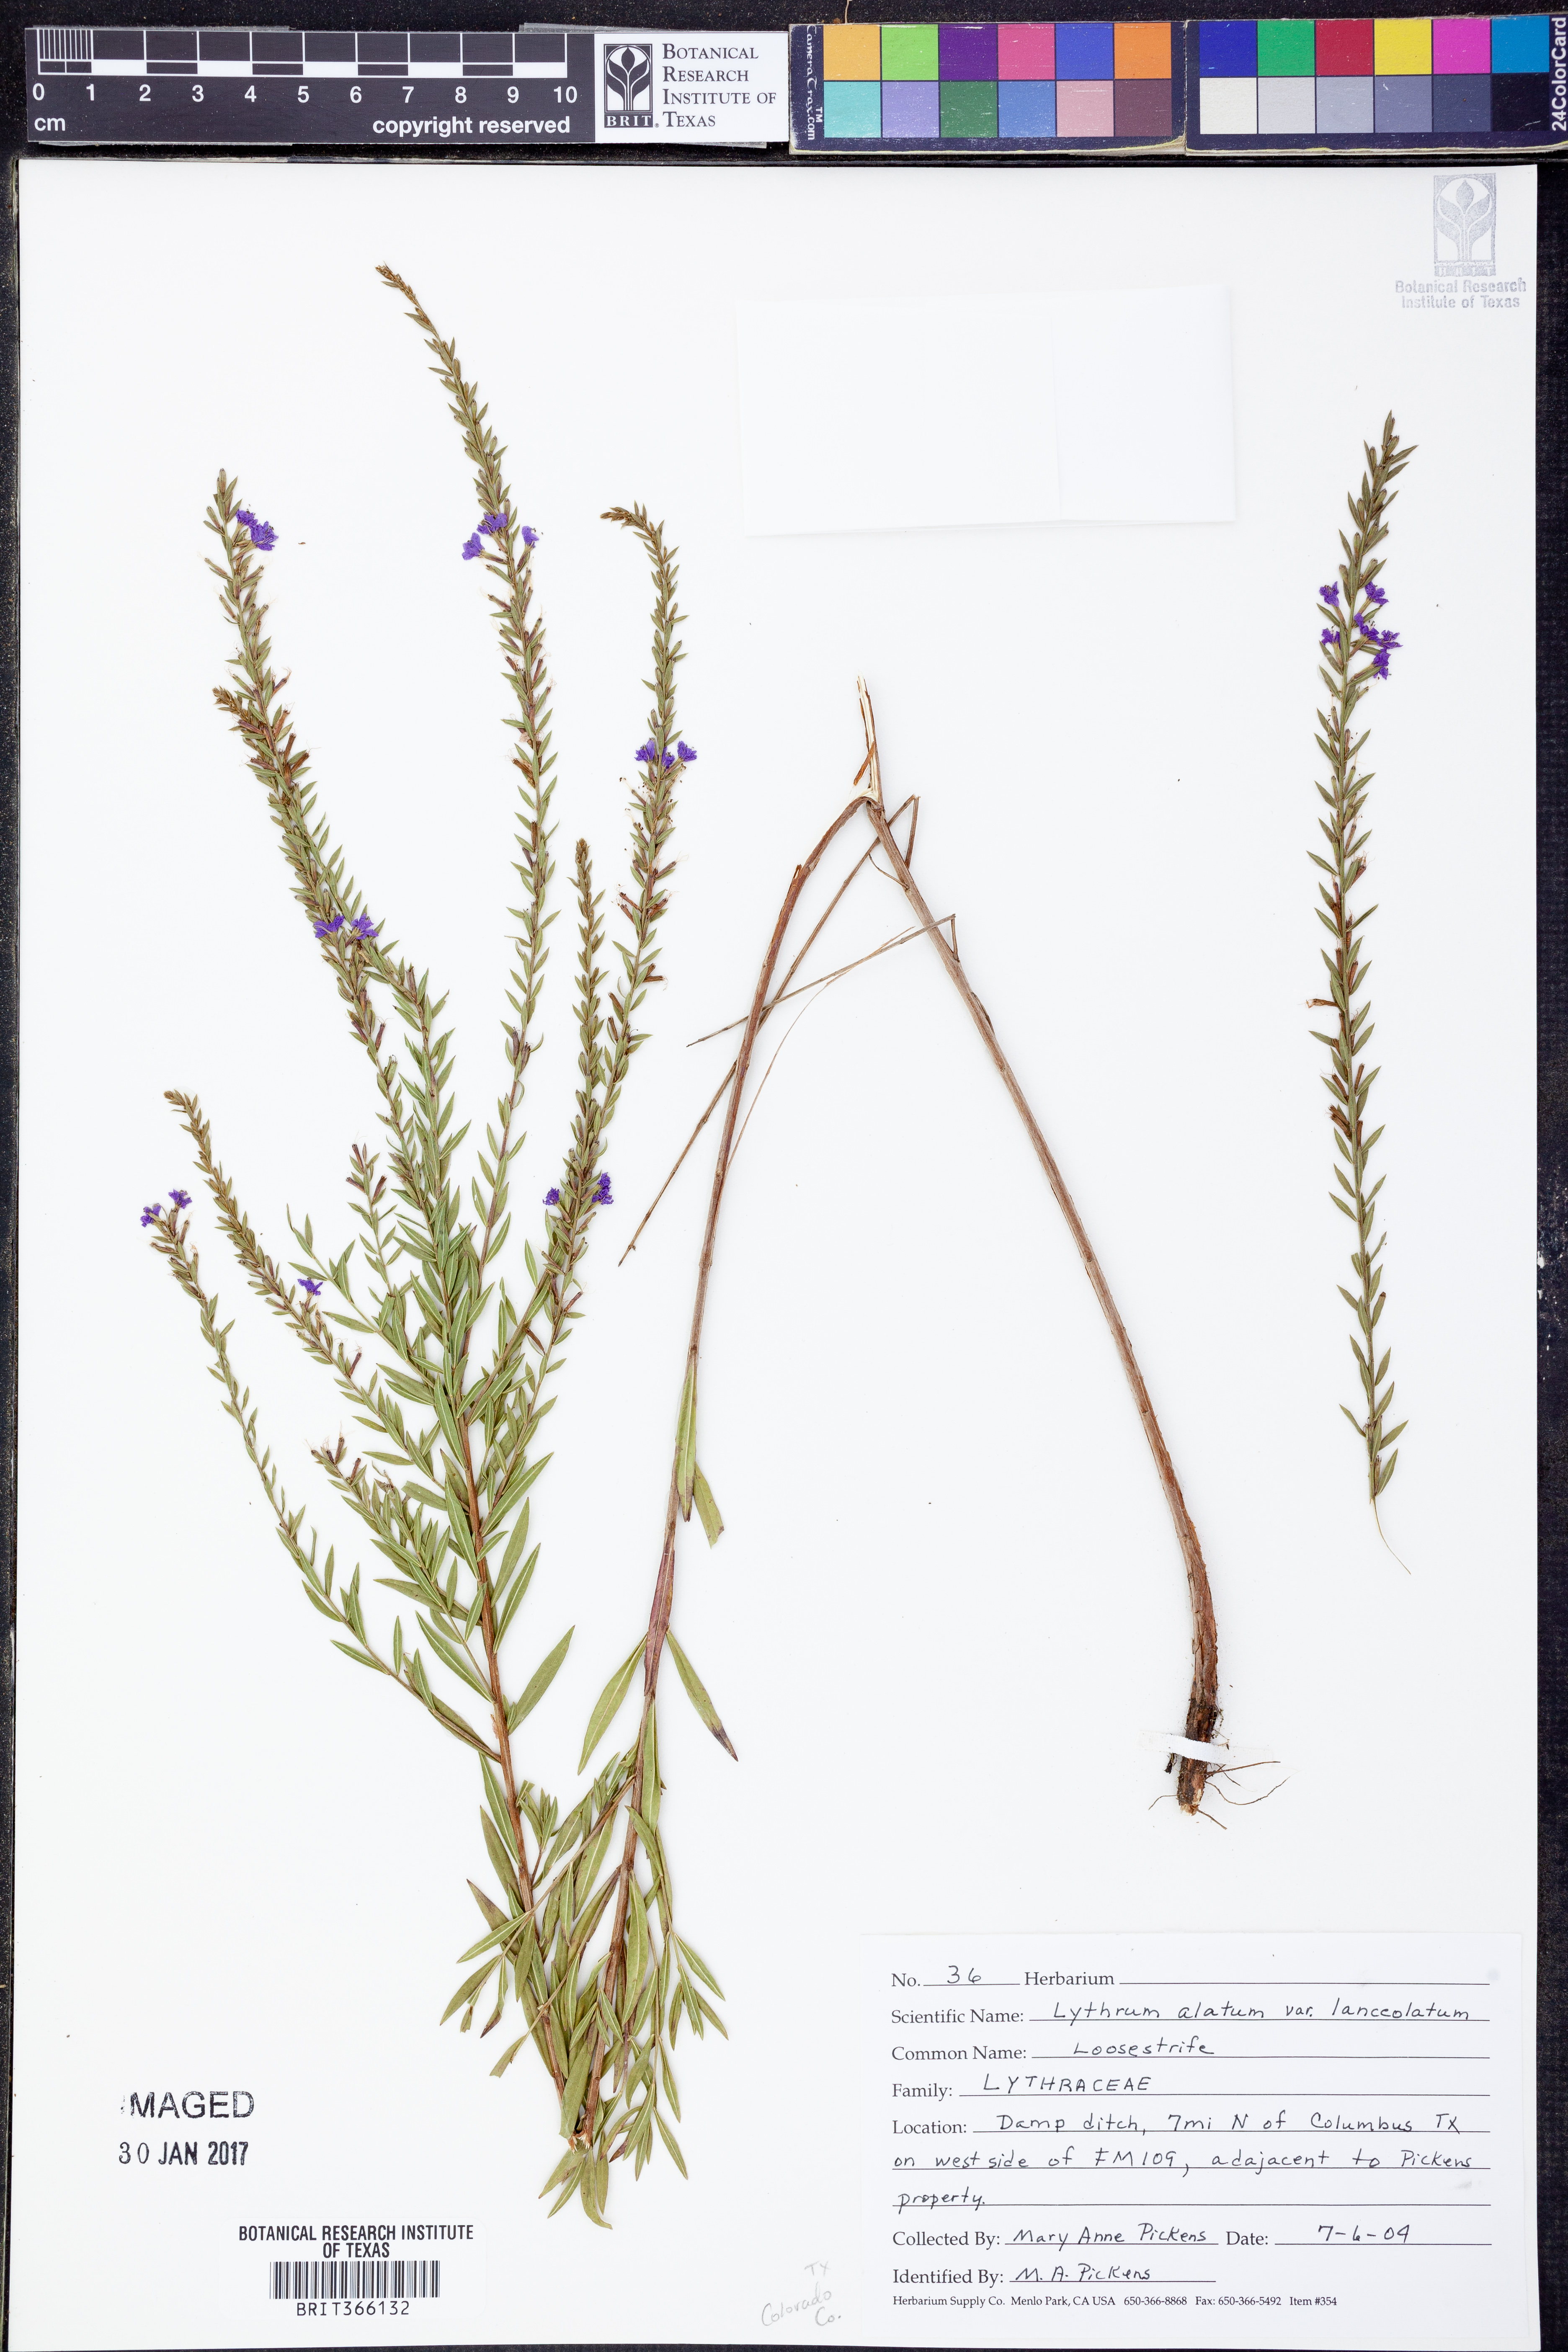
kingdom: Plantae
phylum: Tracheophyta
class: Magnoliopsida
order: Myrtales
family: Lythraceae
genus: Lythrum
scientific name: Lythrum alatum
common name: Winged loosestrife
